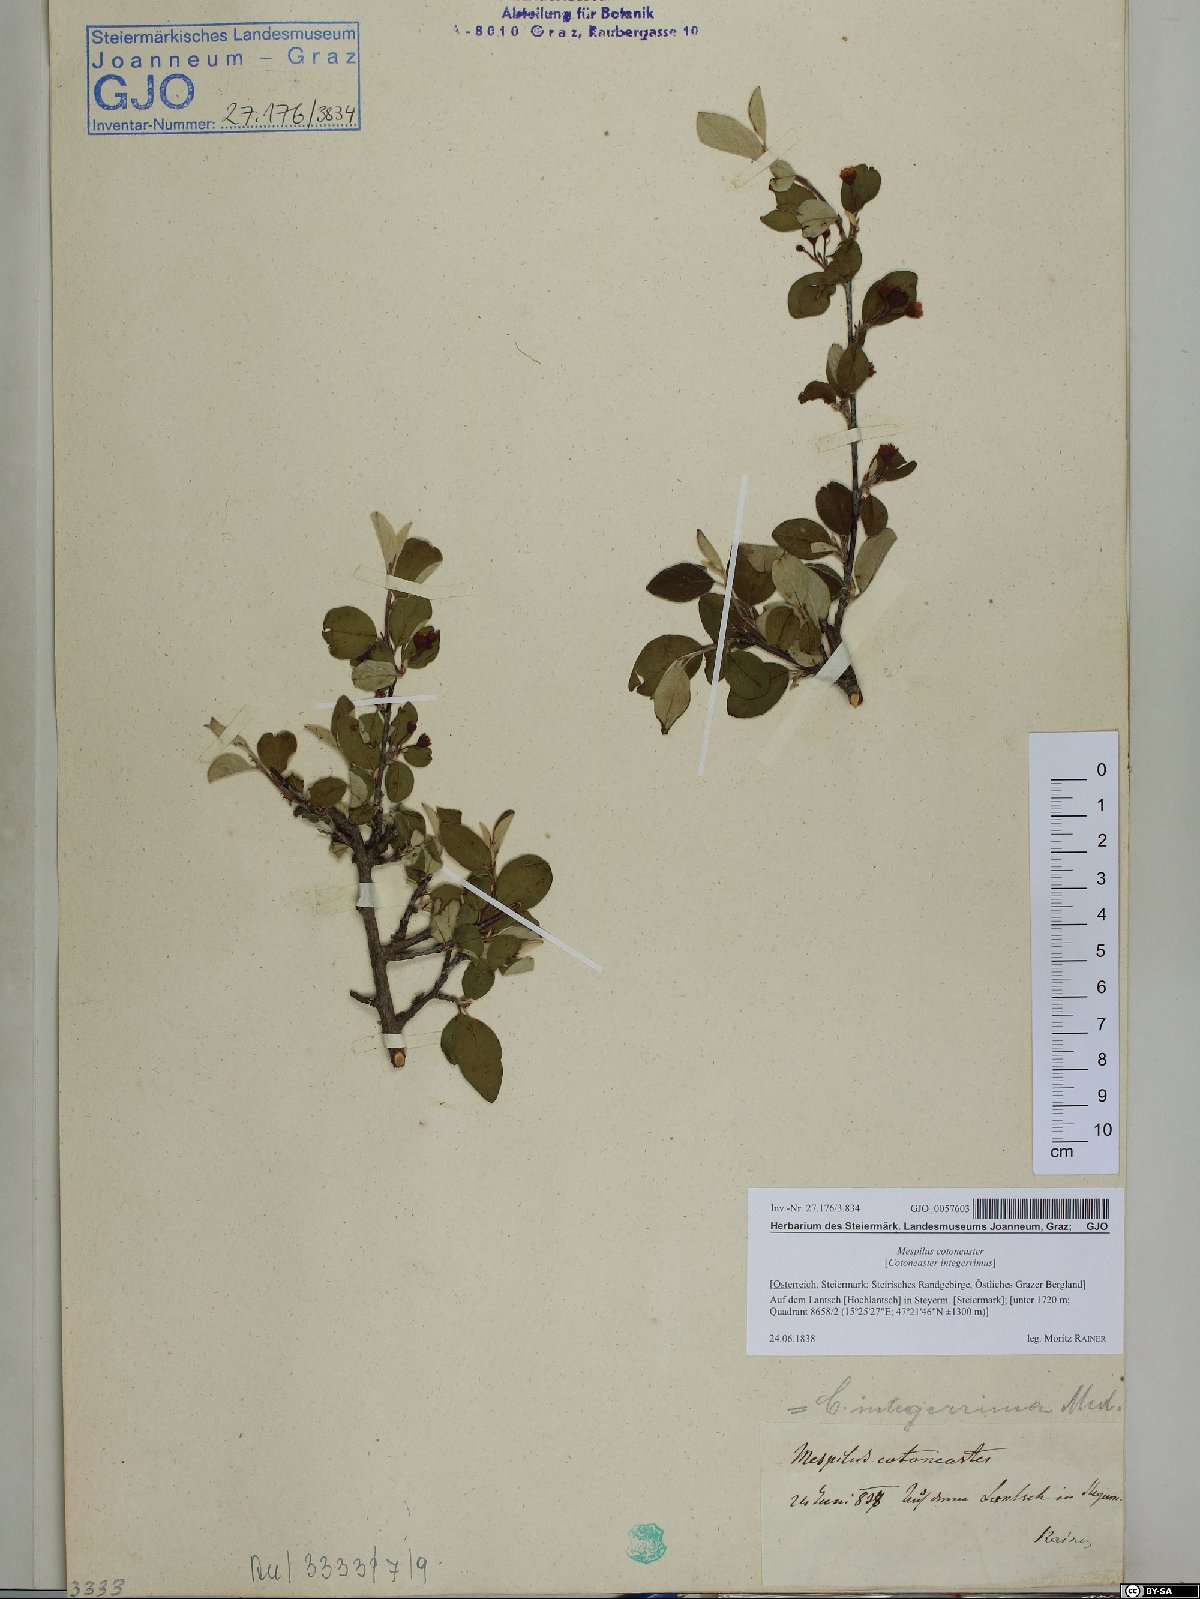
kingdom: Plantae
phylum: Tracheophyta
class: Magnoliopsida
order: Rosales
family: Rosaceae
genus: Cotoneaster
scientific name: Cotoneaster integerrimus
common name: Wild cotoneaster
